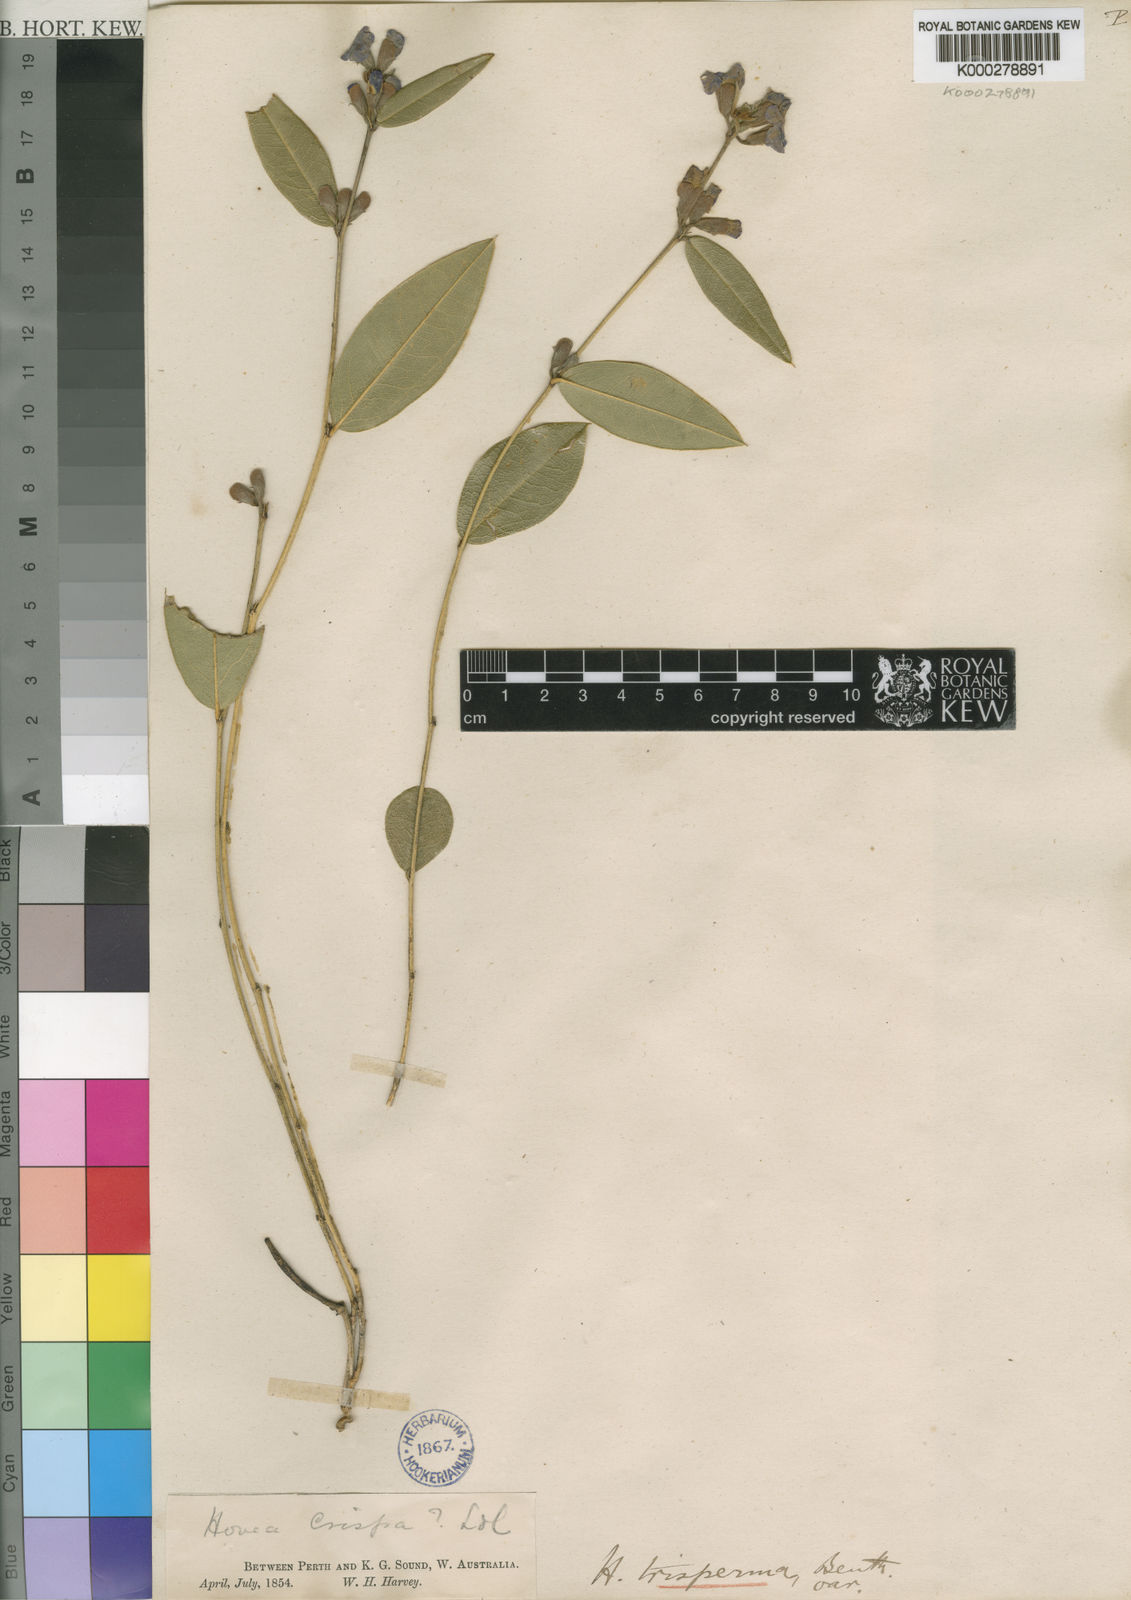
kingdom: Plantae
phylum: Tracheophyta
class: Magnoliopsida
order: Fabales
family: Fabaceae
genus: Hovea
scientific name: Hovea trisperma
